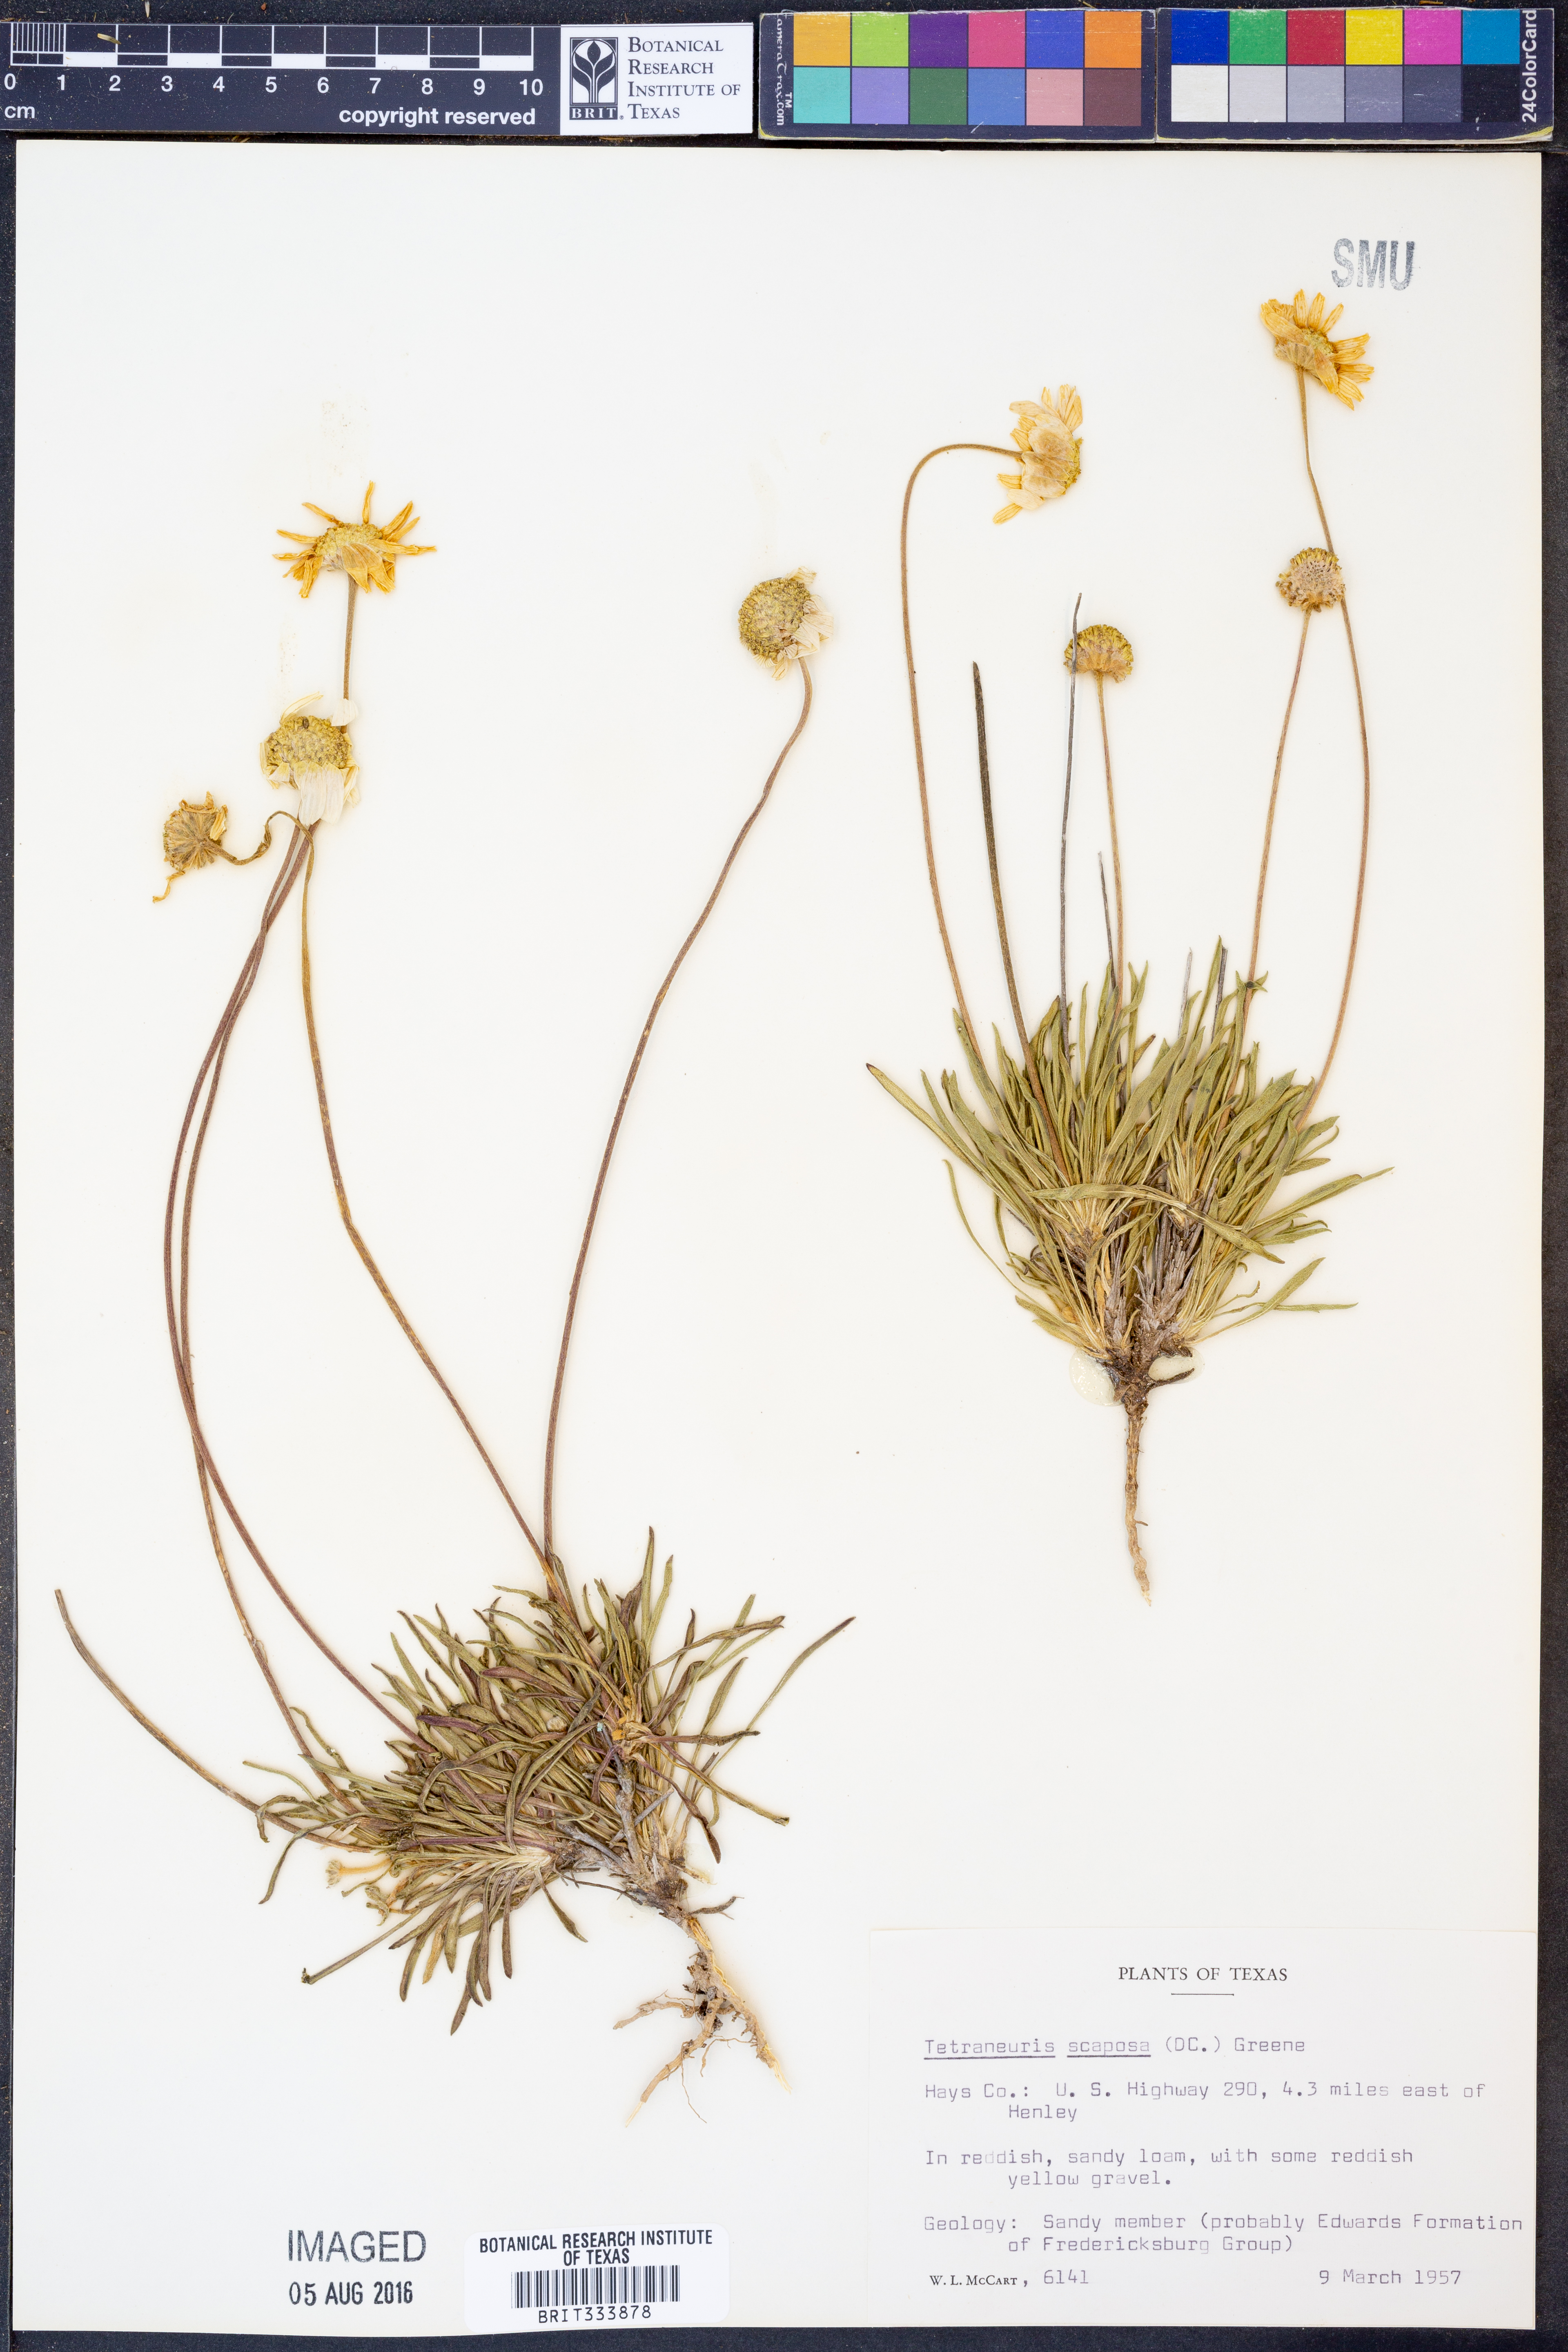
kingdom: Plantae
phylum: Tracheophyta
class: Magnoliopsida
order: Asterales
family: Asteraceae
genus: Tetraneuris
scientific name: Tetraneuris scaposa
